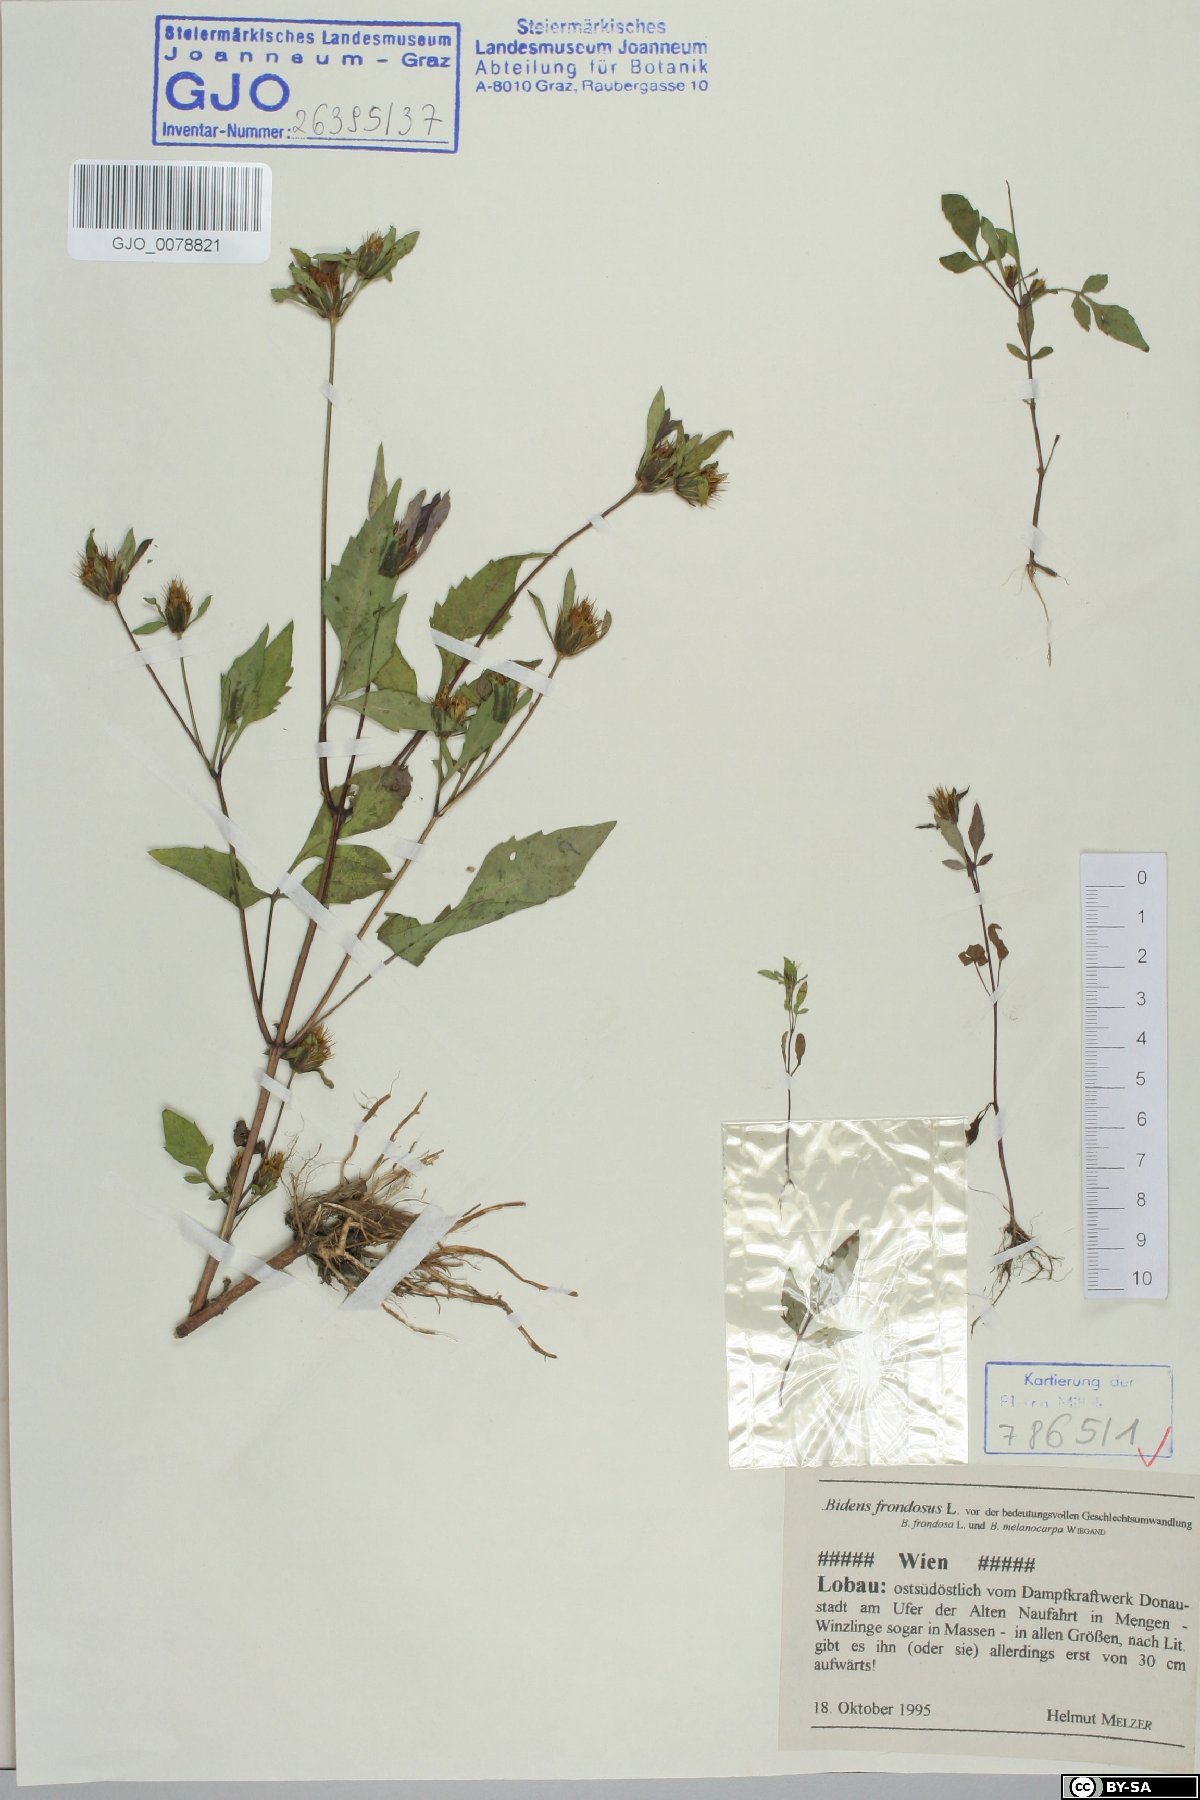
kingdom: Plantae
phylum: Tracheophyta
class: Magnoliopsida
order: Asterales
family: Asteraceae
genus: Bidens
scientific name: Bidens frondosa
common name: Beggarticks
